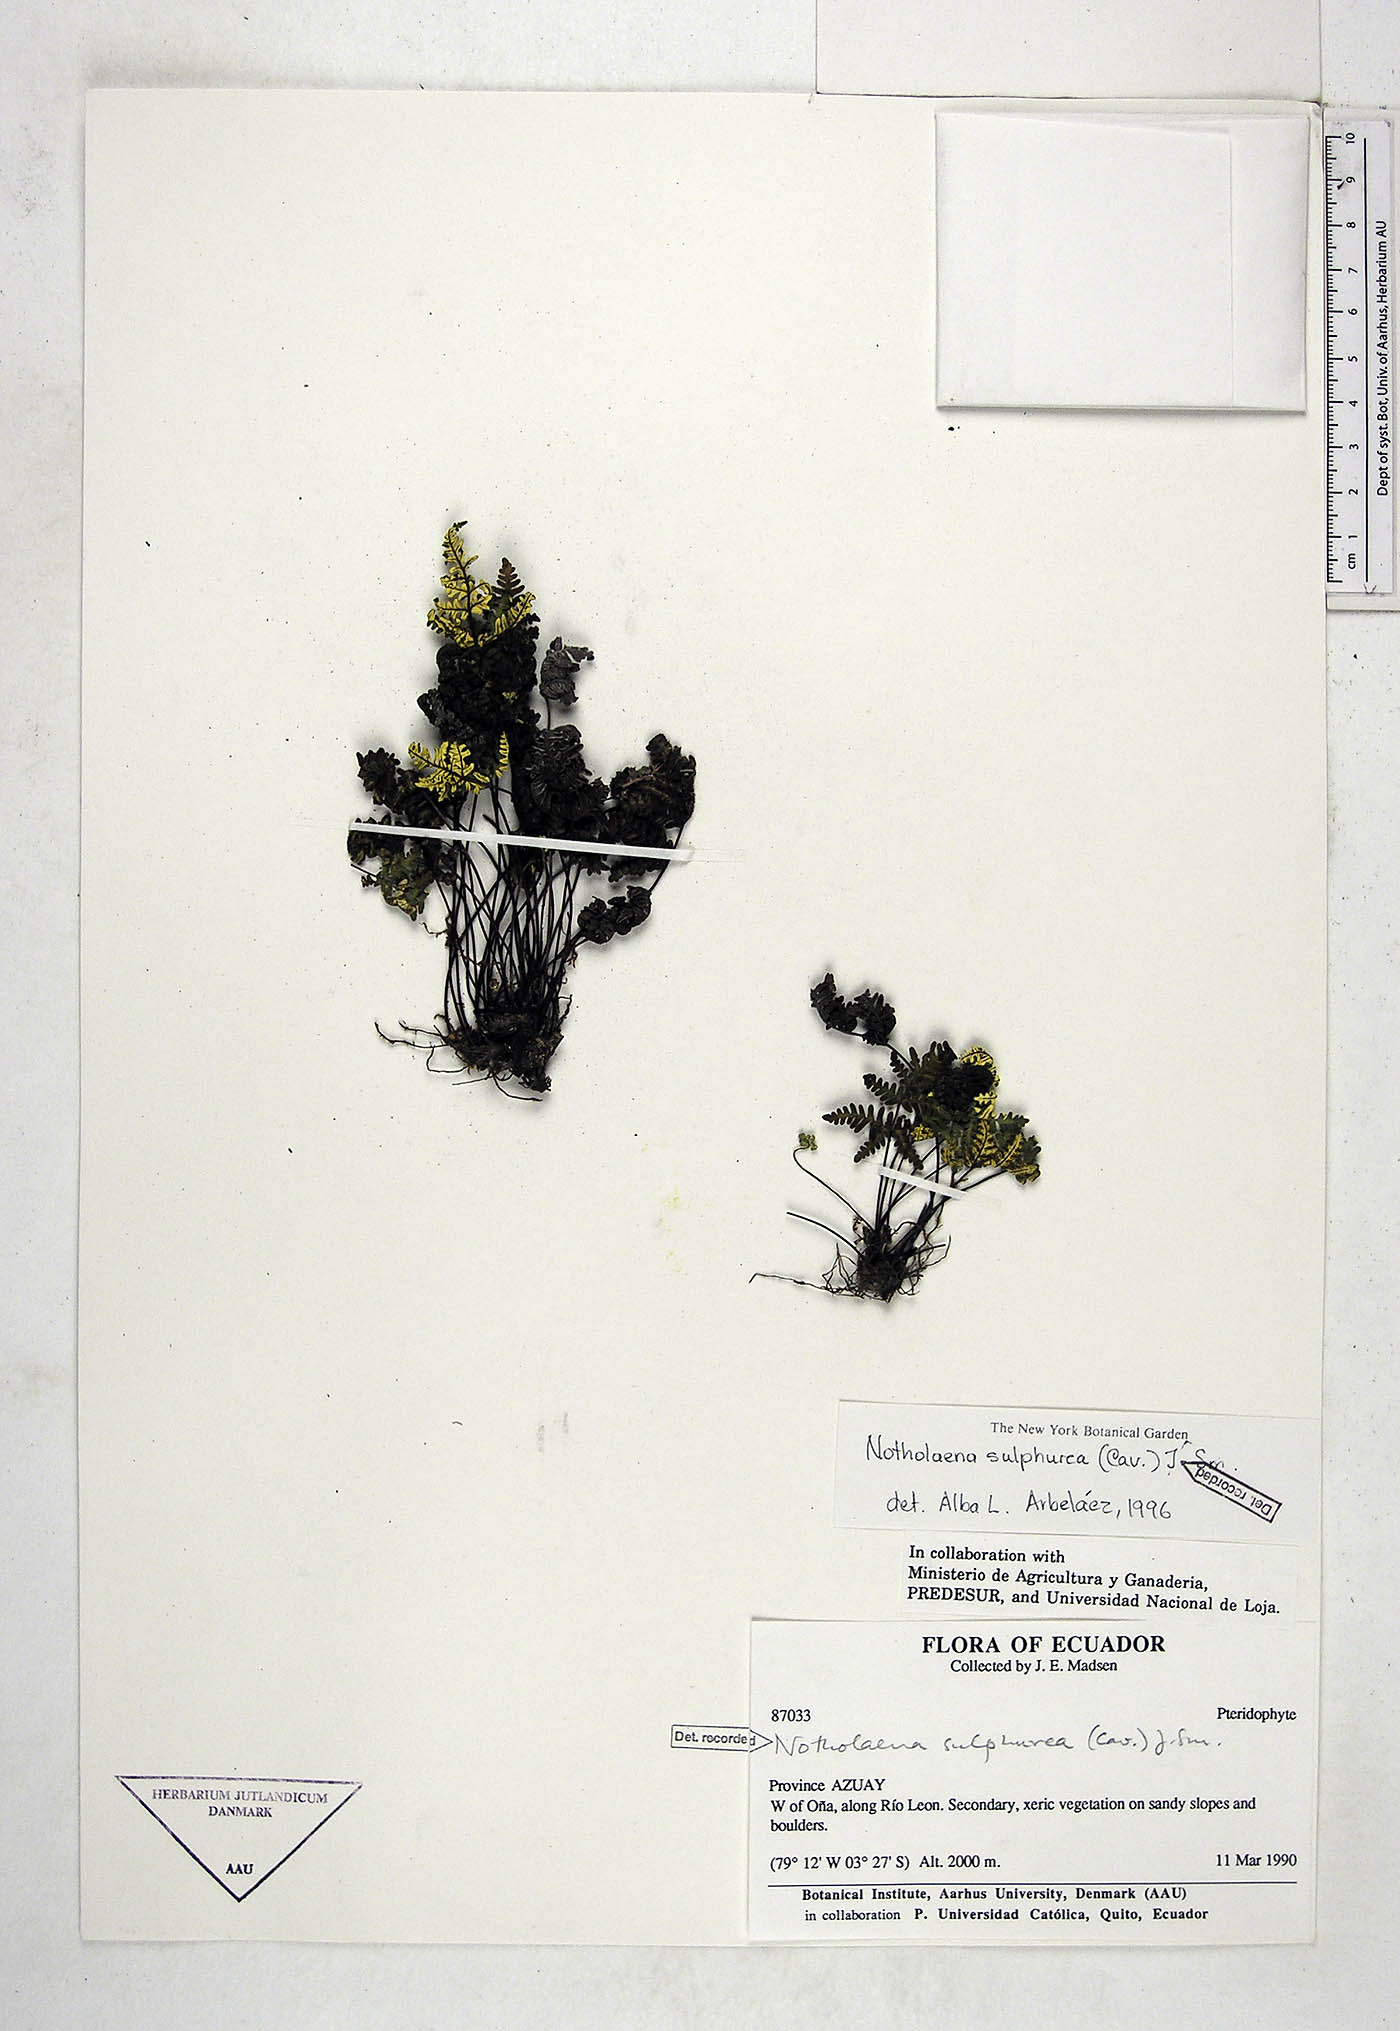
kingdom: Plantae
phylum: Tracheophyta
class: Polypodiopsida
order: Polypodiales
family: Pteridaceae
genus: Notholaena
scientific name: Notholaena sulphurea
